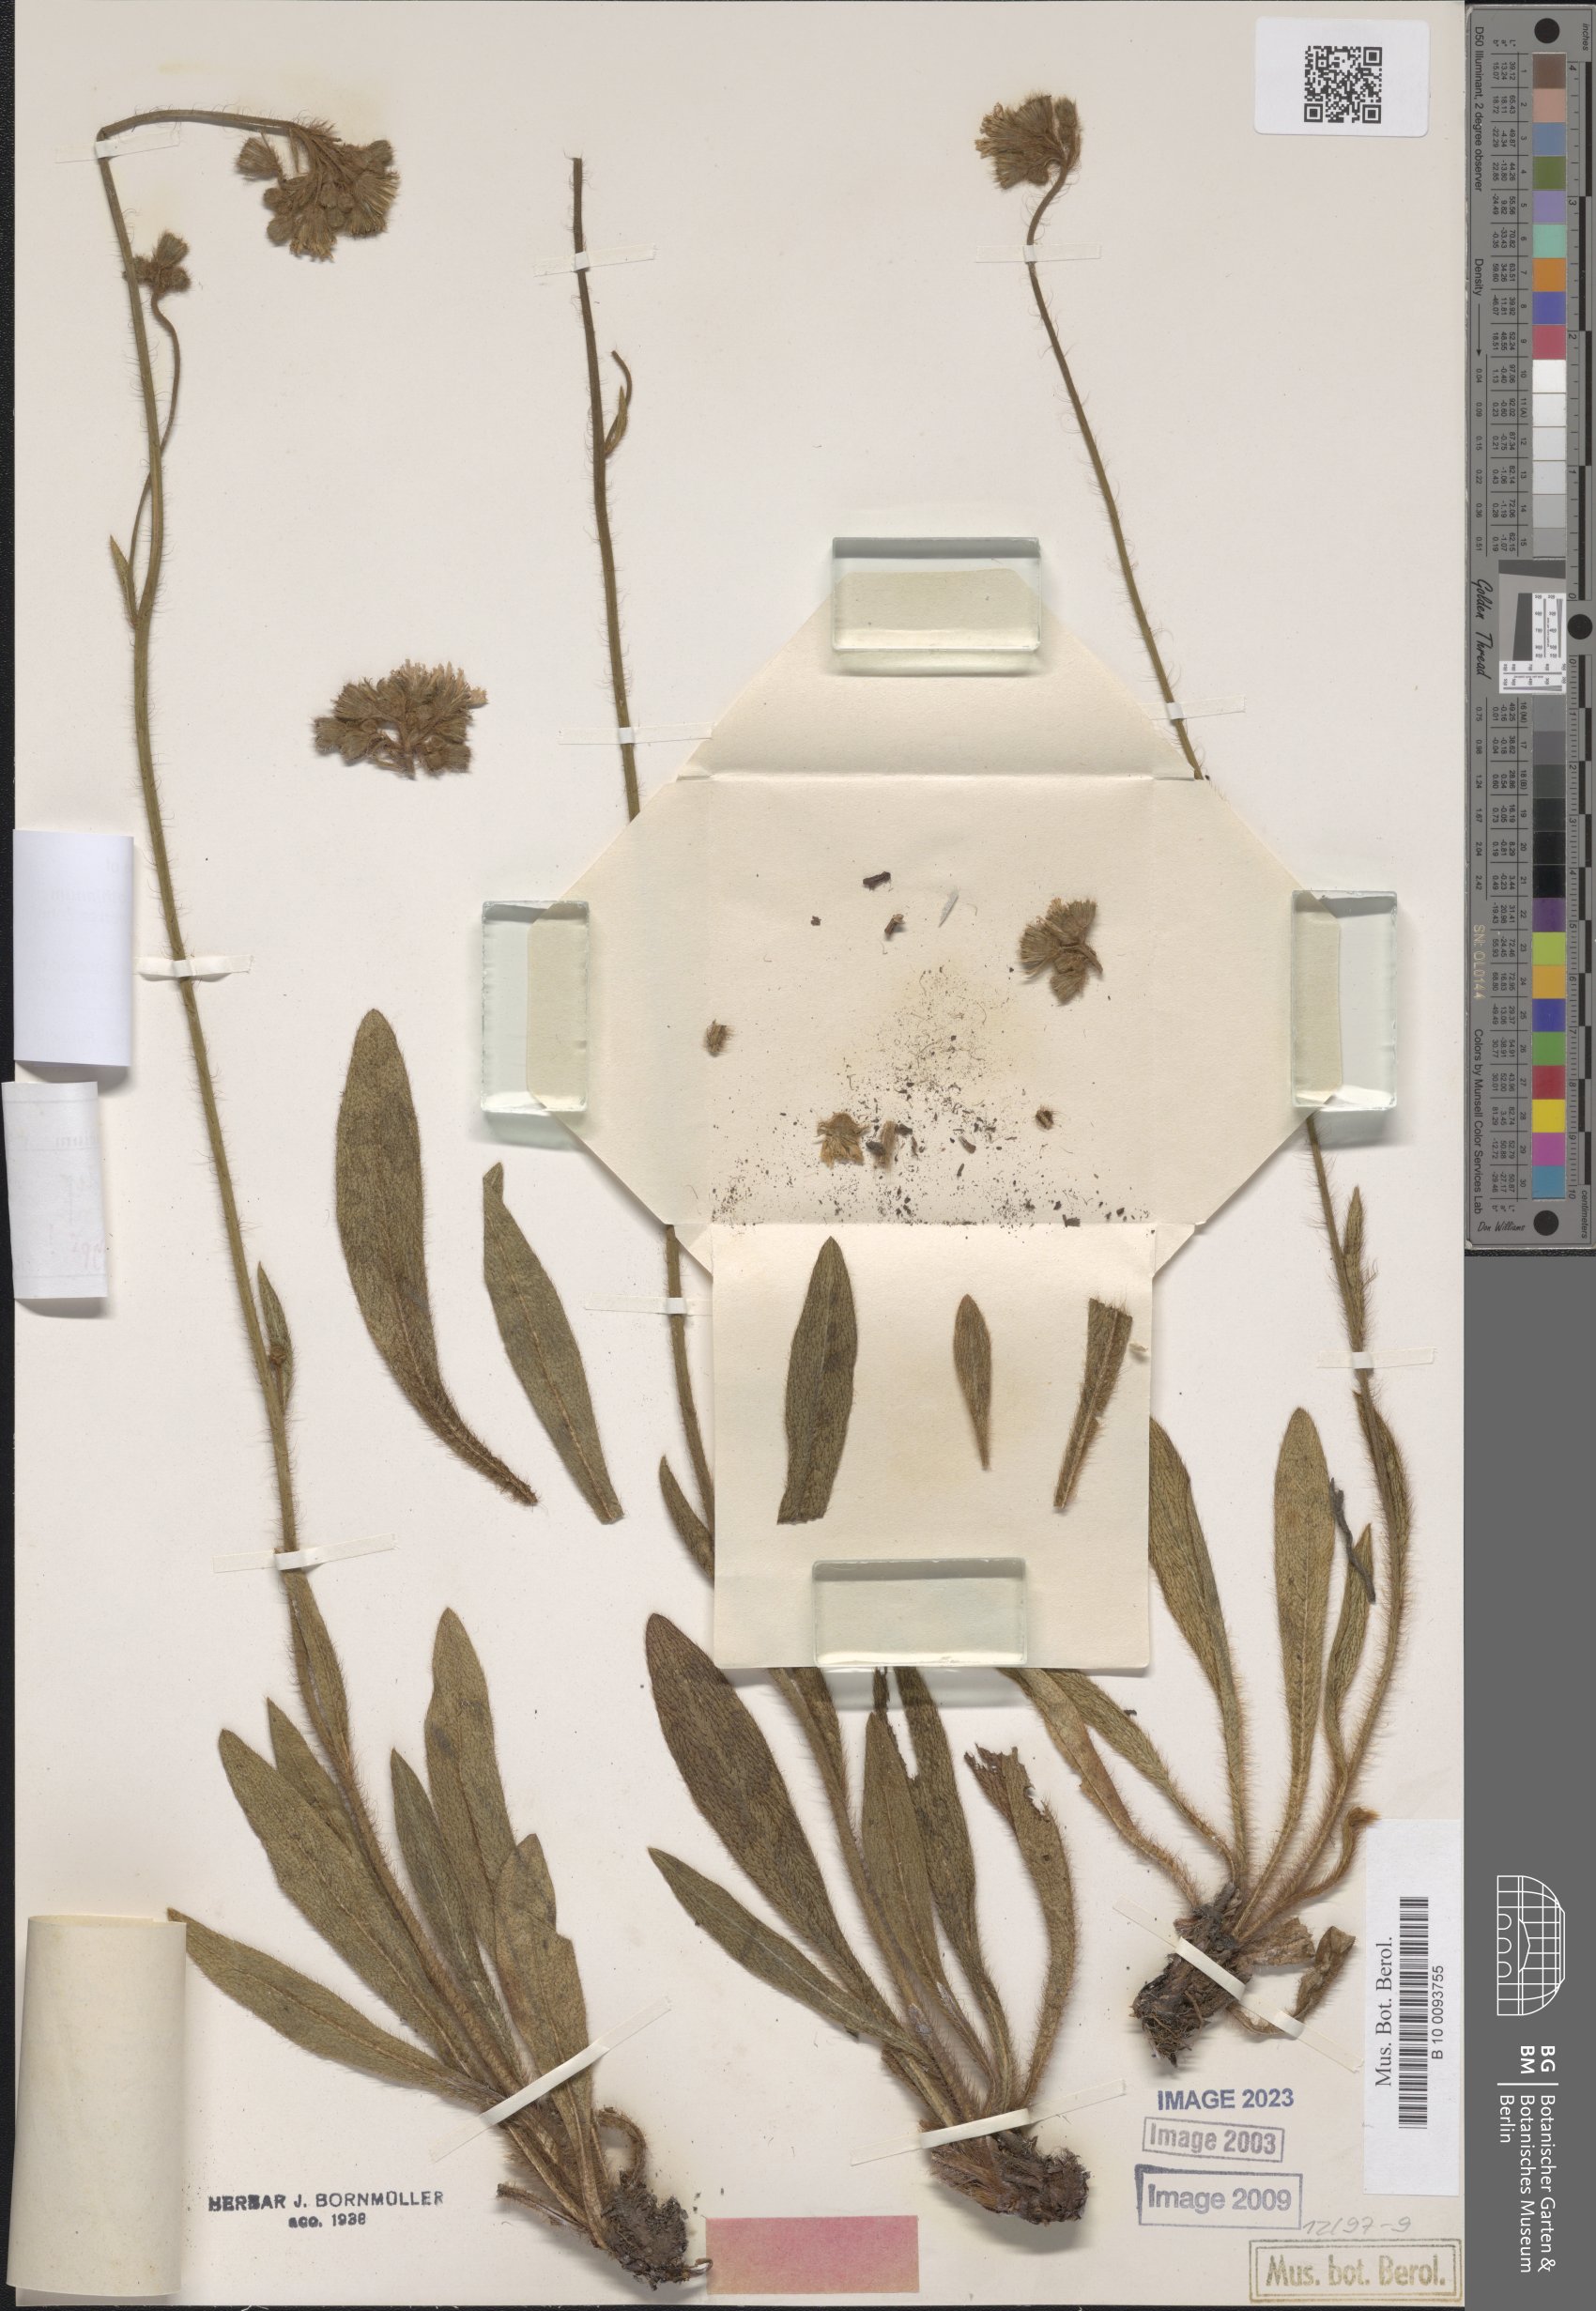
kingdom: Plantae
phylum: Tracheophyta
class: Magnoliopsida
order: Asterales
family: Asteraceae
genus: Hieracium
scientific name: Hieracium rothianum
